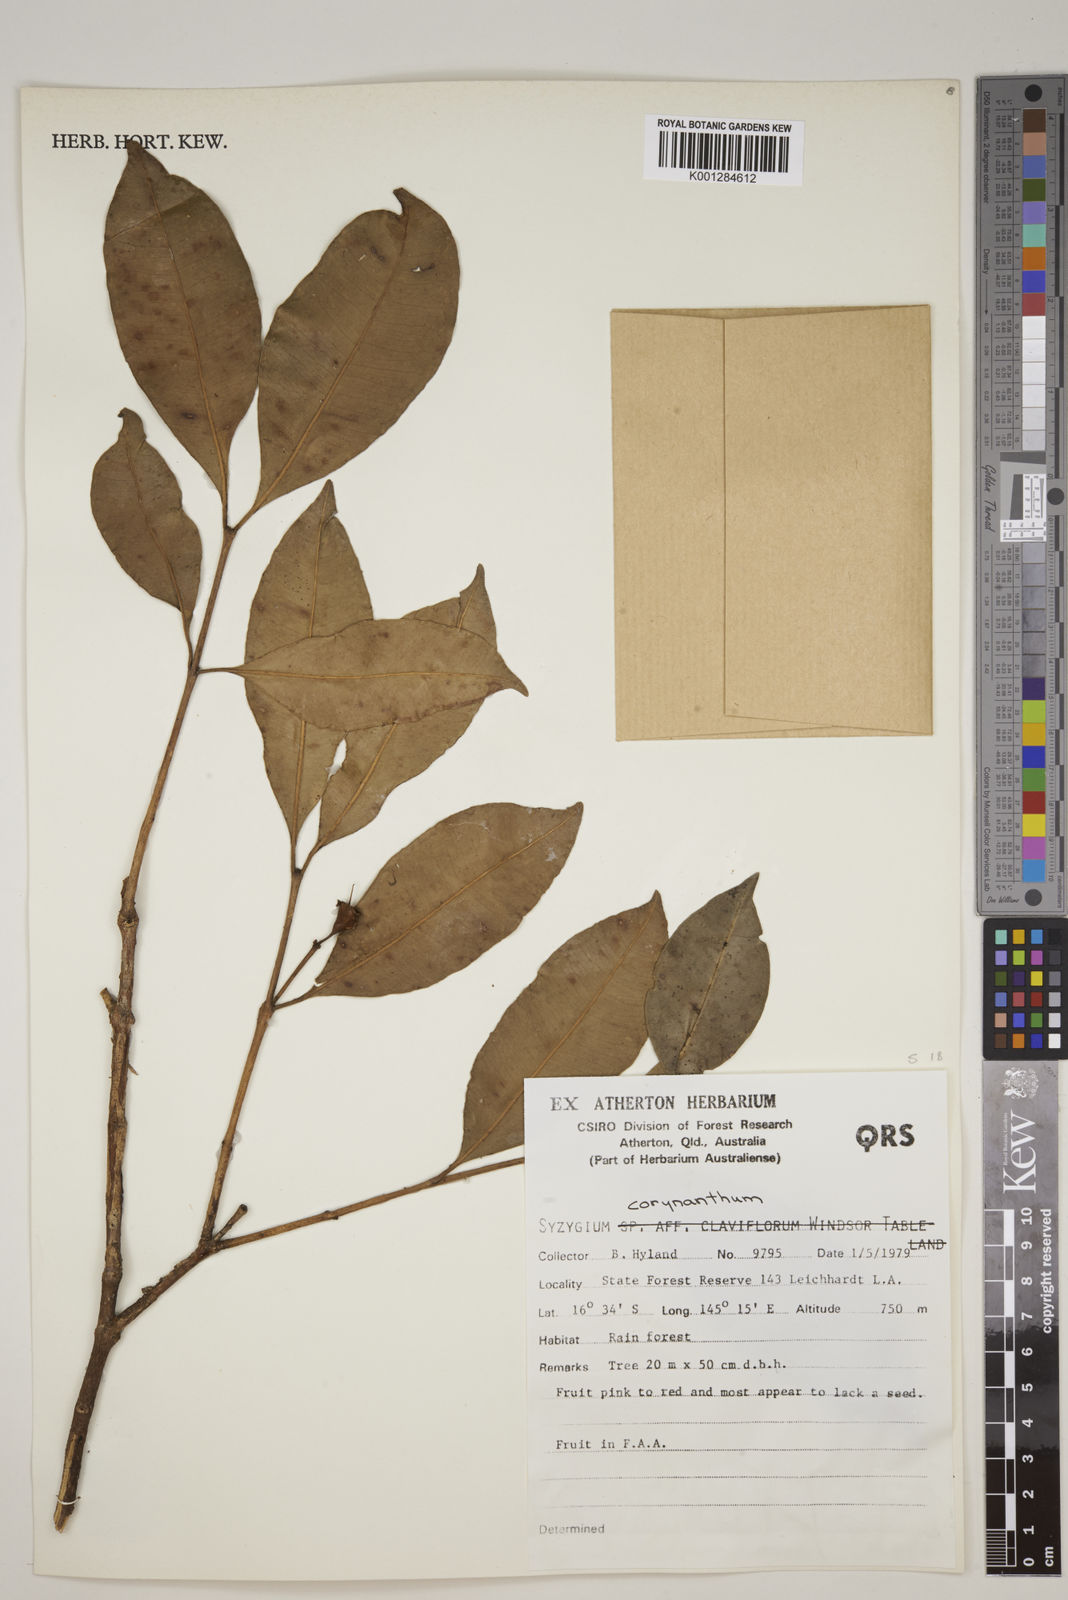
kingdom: Plantae
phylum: Tracheophyta
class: Magnoliopsida
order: Myrtales
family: Myrtaceae
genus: Syzygium
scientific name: Syzygium corynanthum
